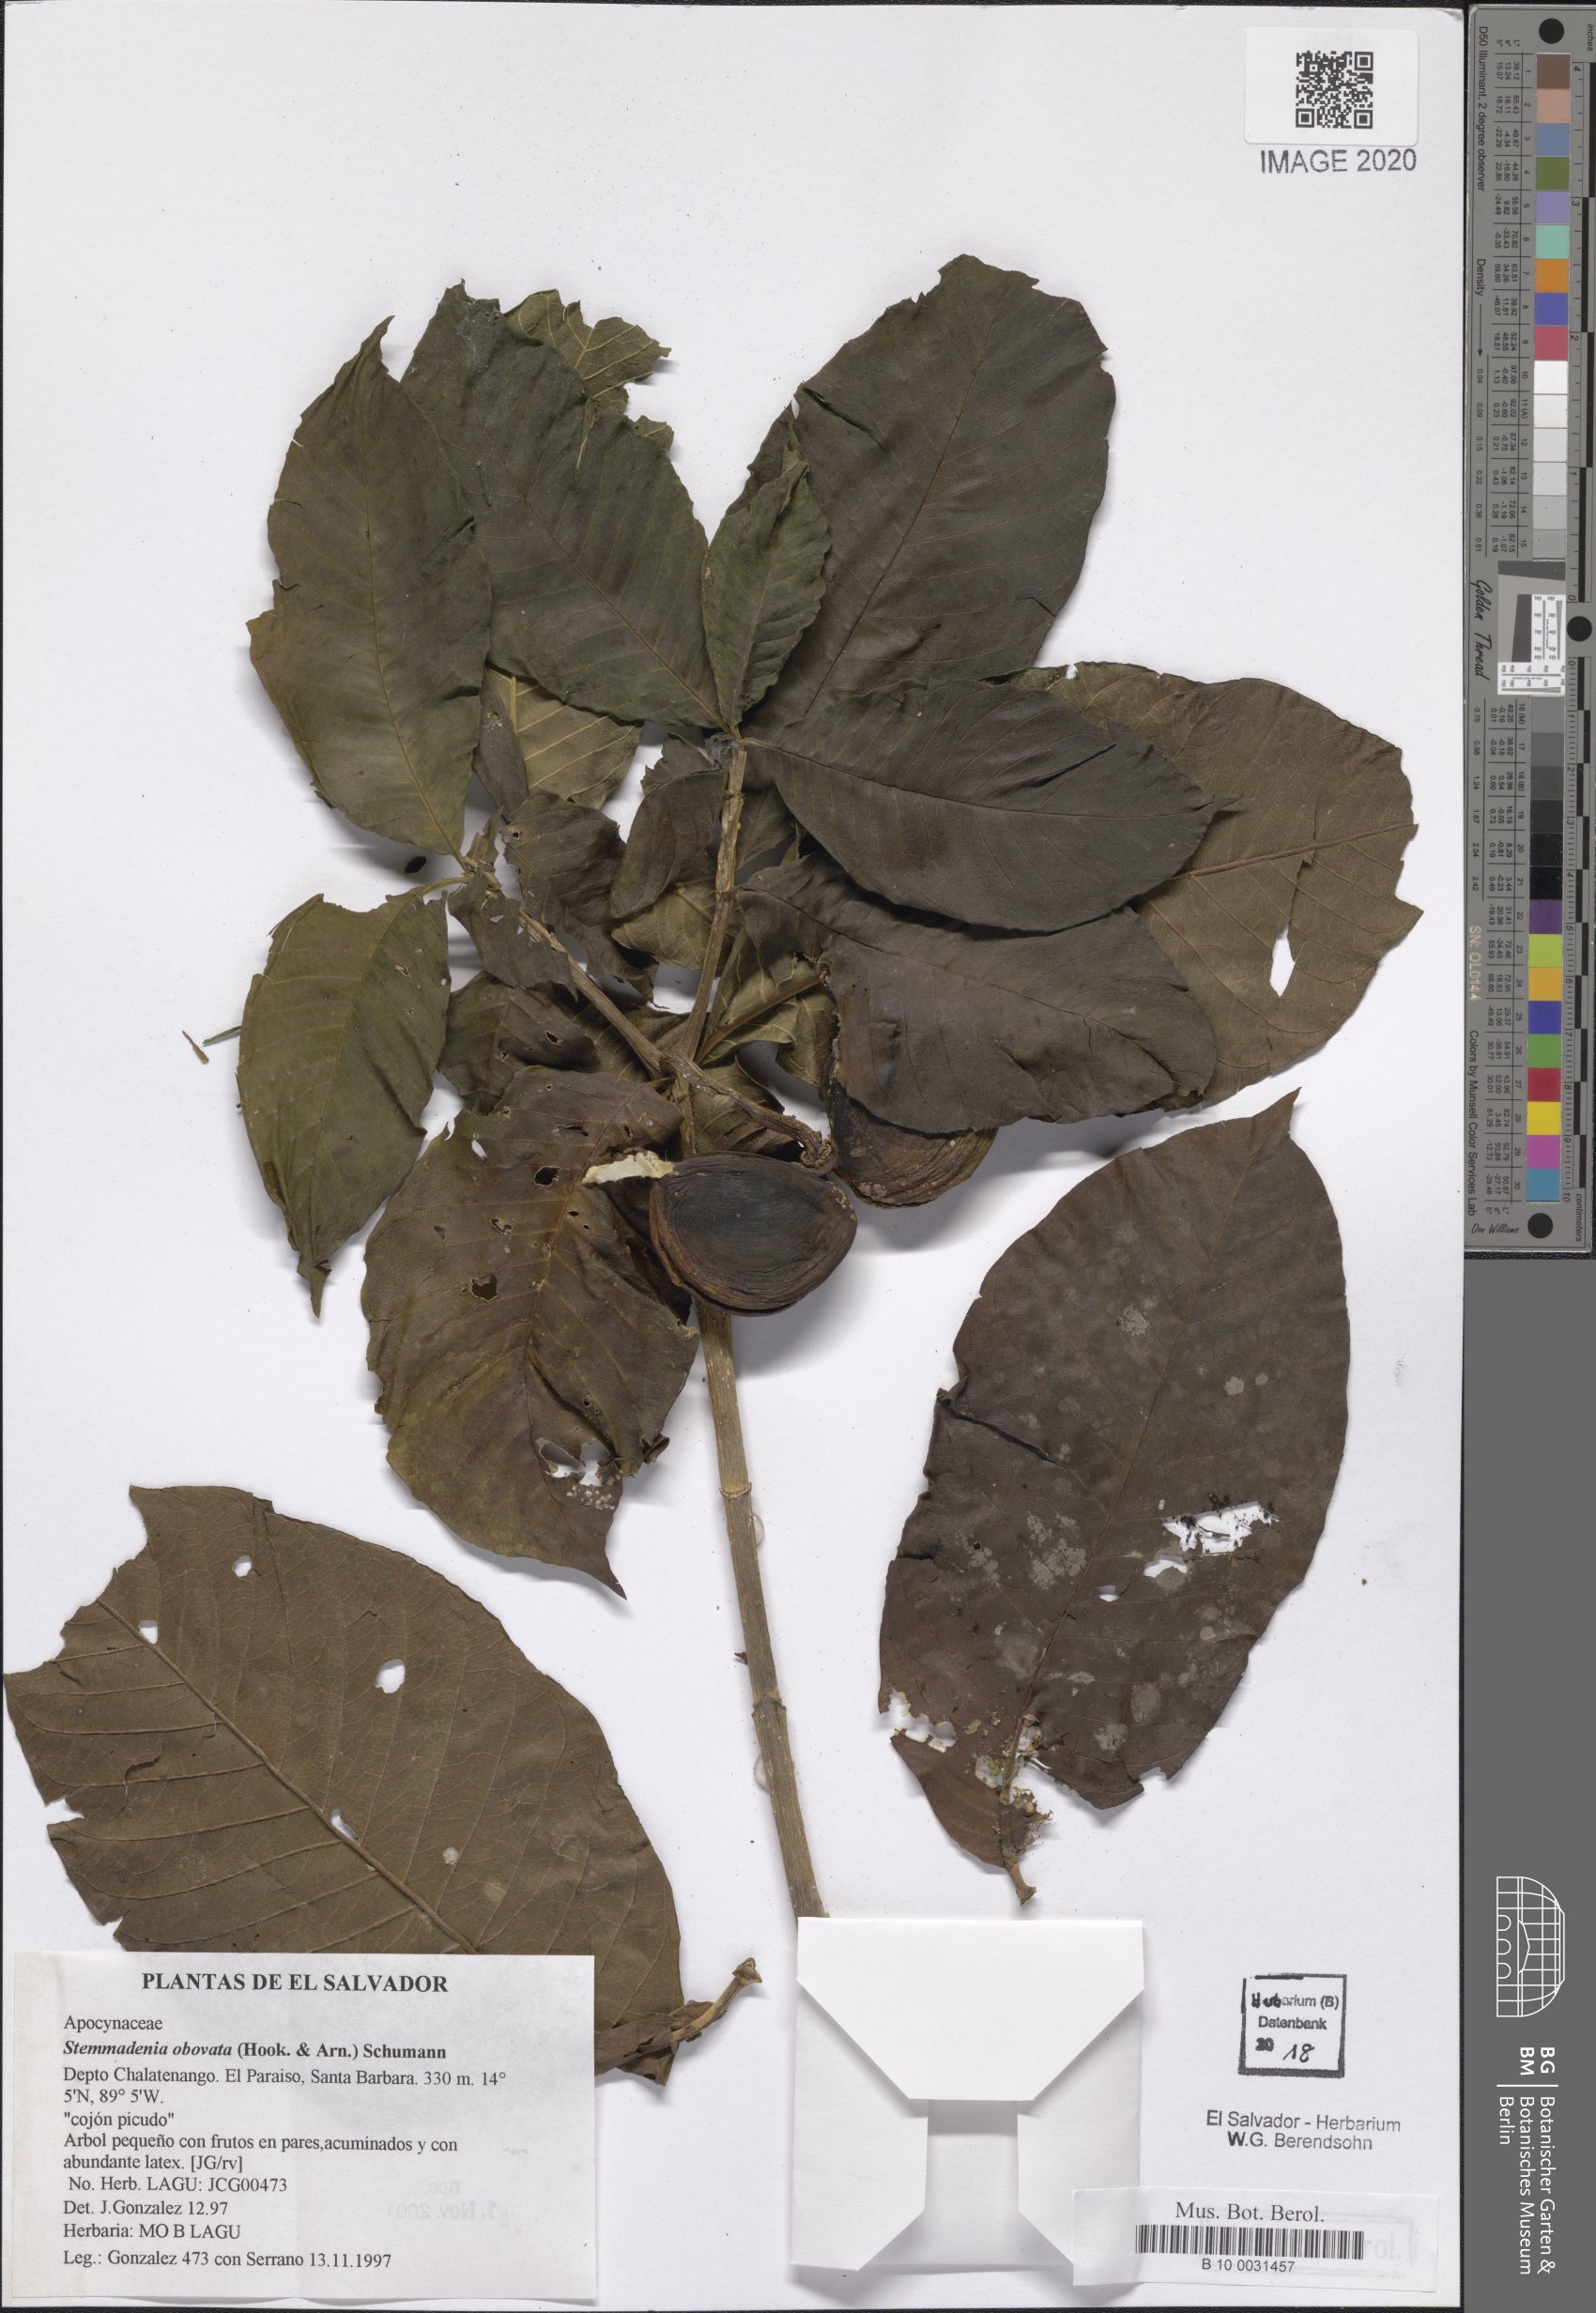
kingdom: Plantae
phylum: Tracheophyta
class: Magnoliopsida
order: Gentianales
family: Apocynaceae
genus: Tabernaemontana
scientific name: Tabernaemontana glabra
